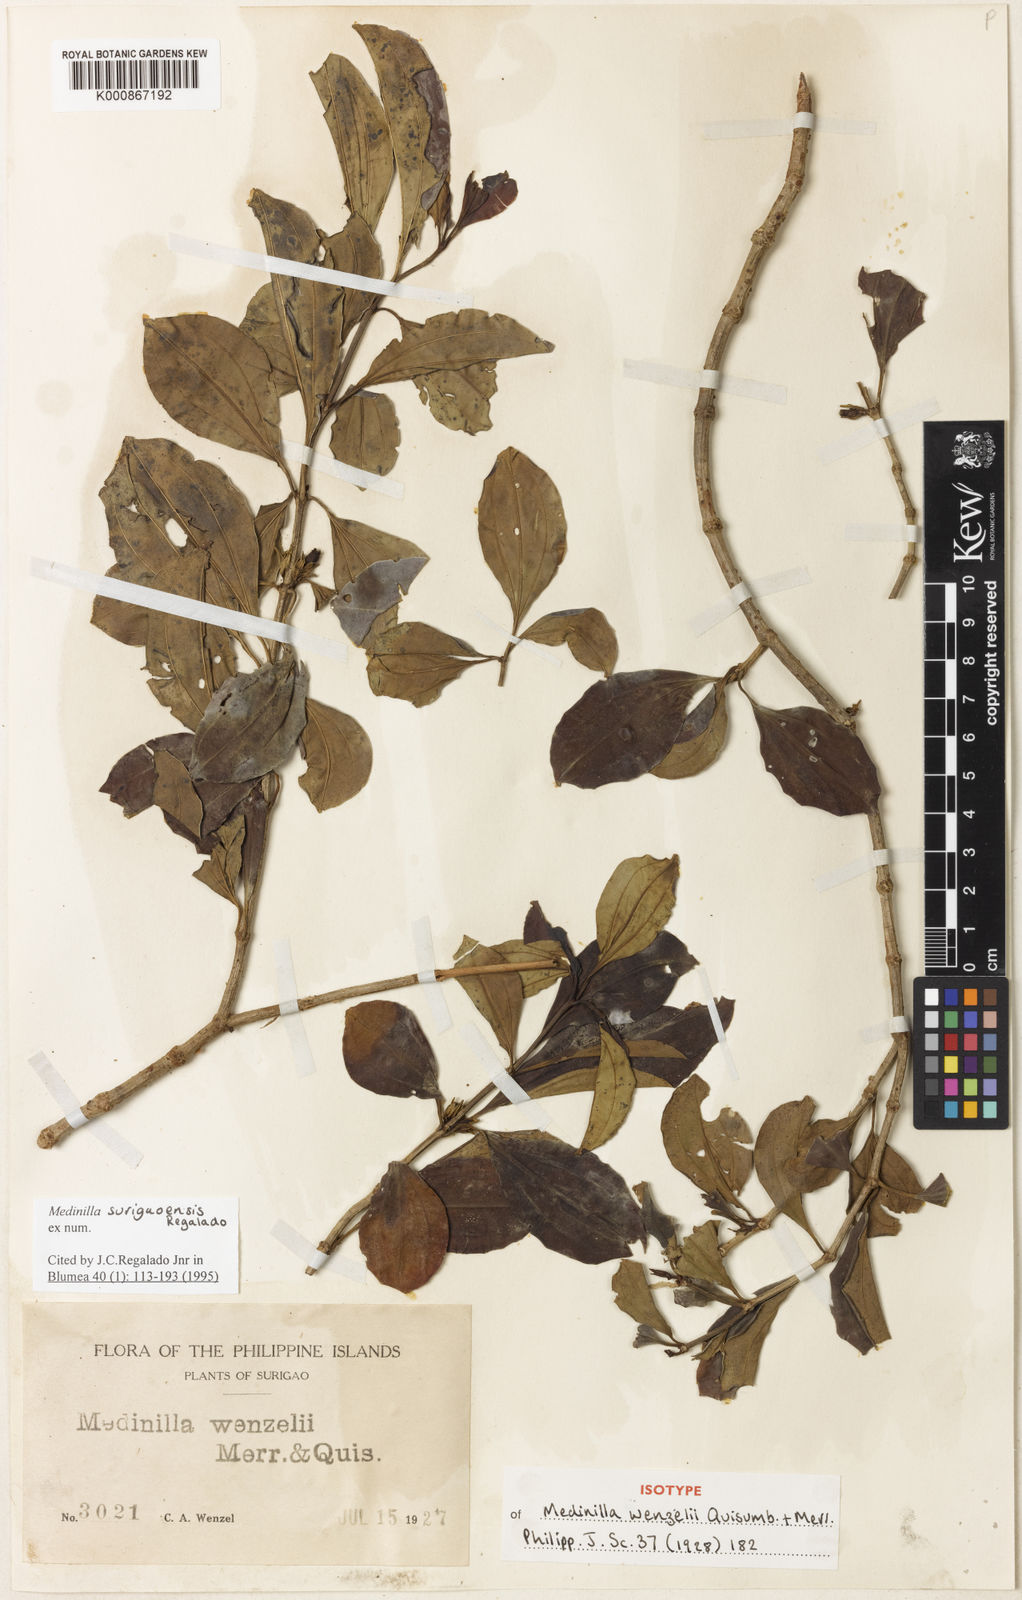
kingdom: Plantae
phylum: Tracheophyta
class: Magnoliopsida
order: Myrtales
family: Melastomataceae
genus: Medinilla
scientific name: Medinilla surigaoensis
